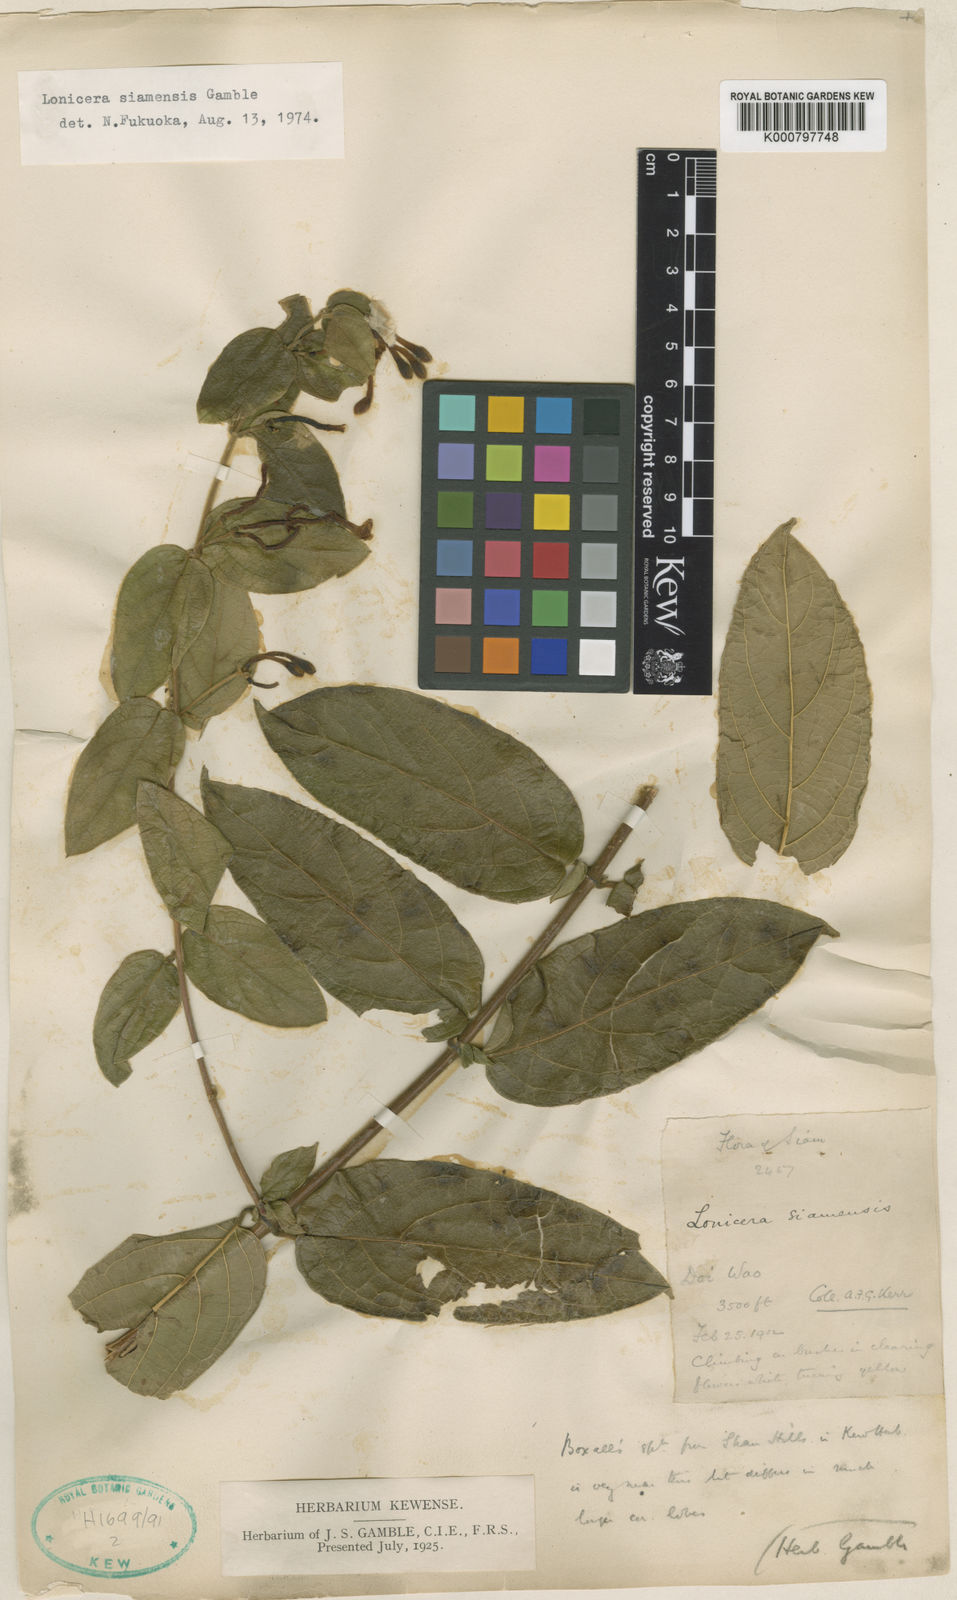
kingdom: Plantae
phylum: Tracheophyta
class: Magnoliopsida
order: Dipsacales
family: Caprifoliaceae
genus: Lonicera
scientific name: Lonicera siamensis
